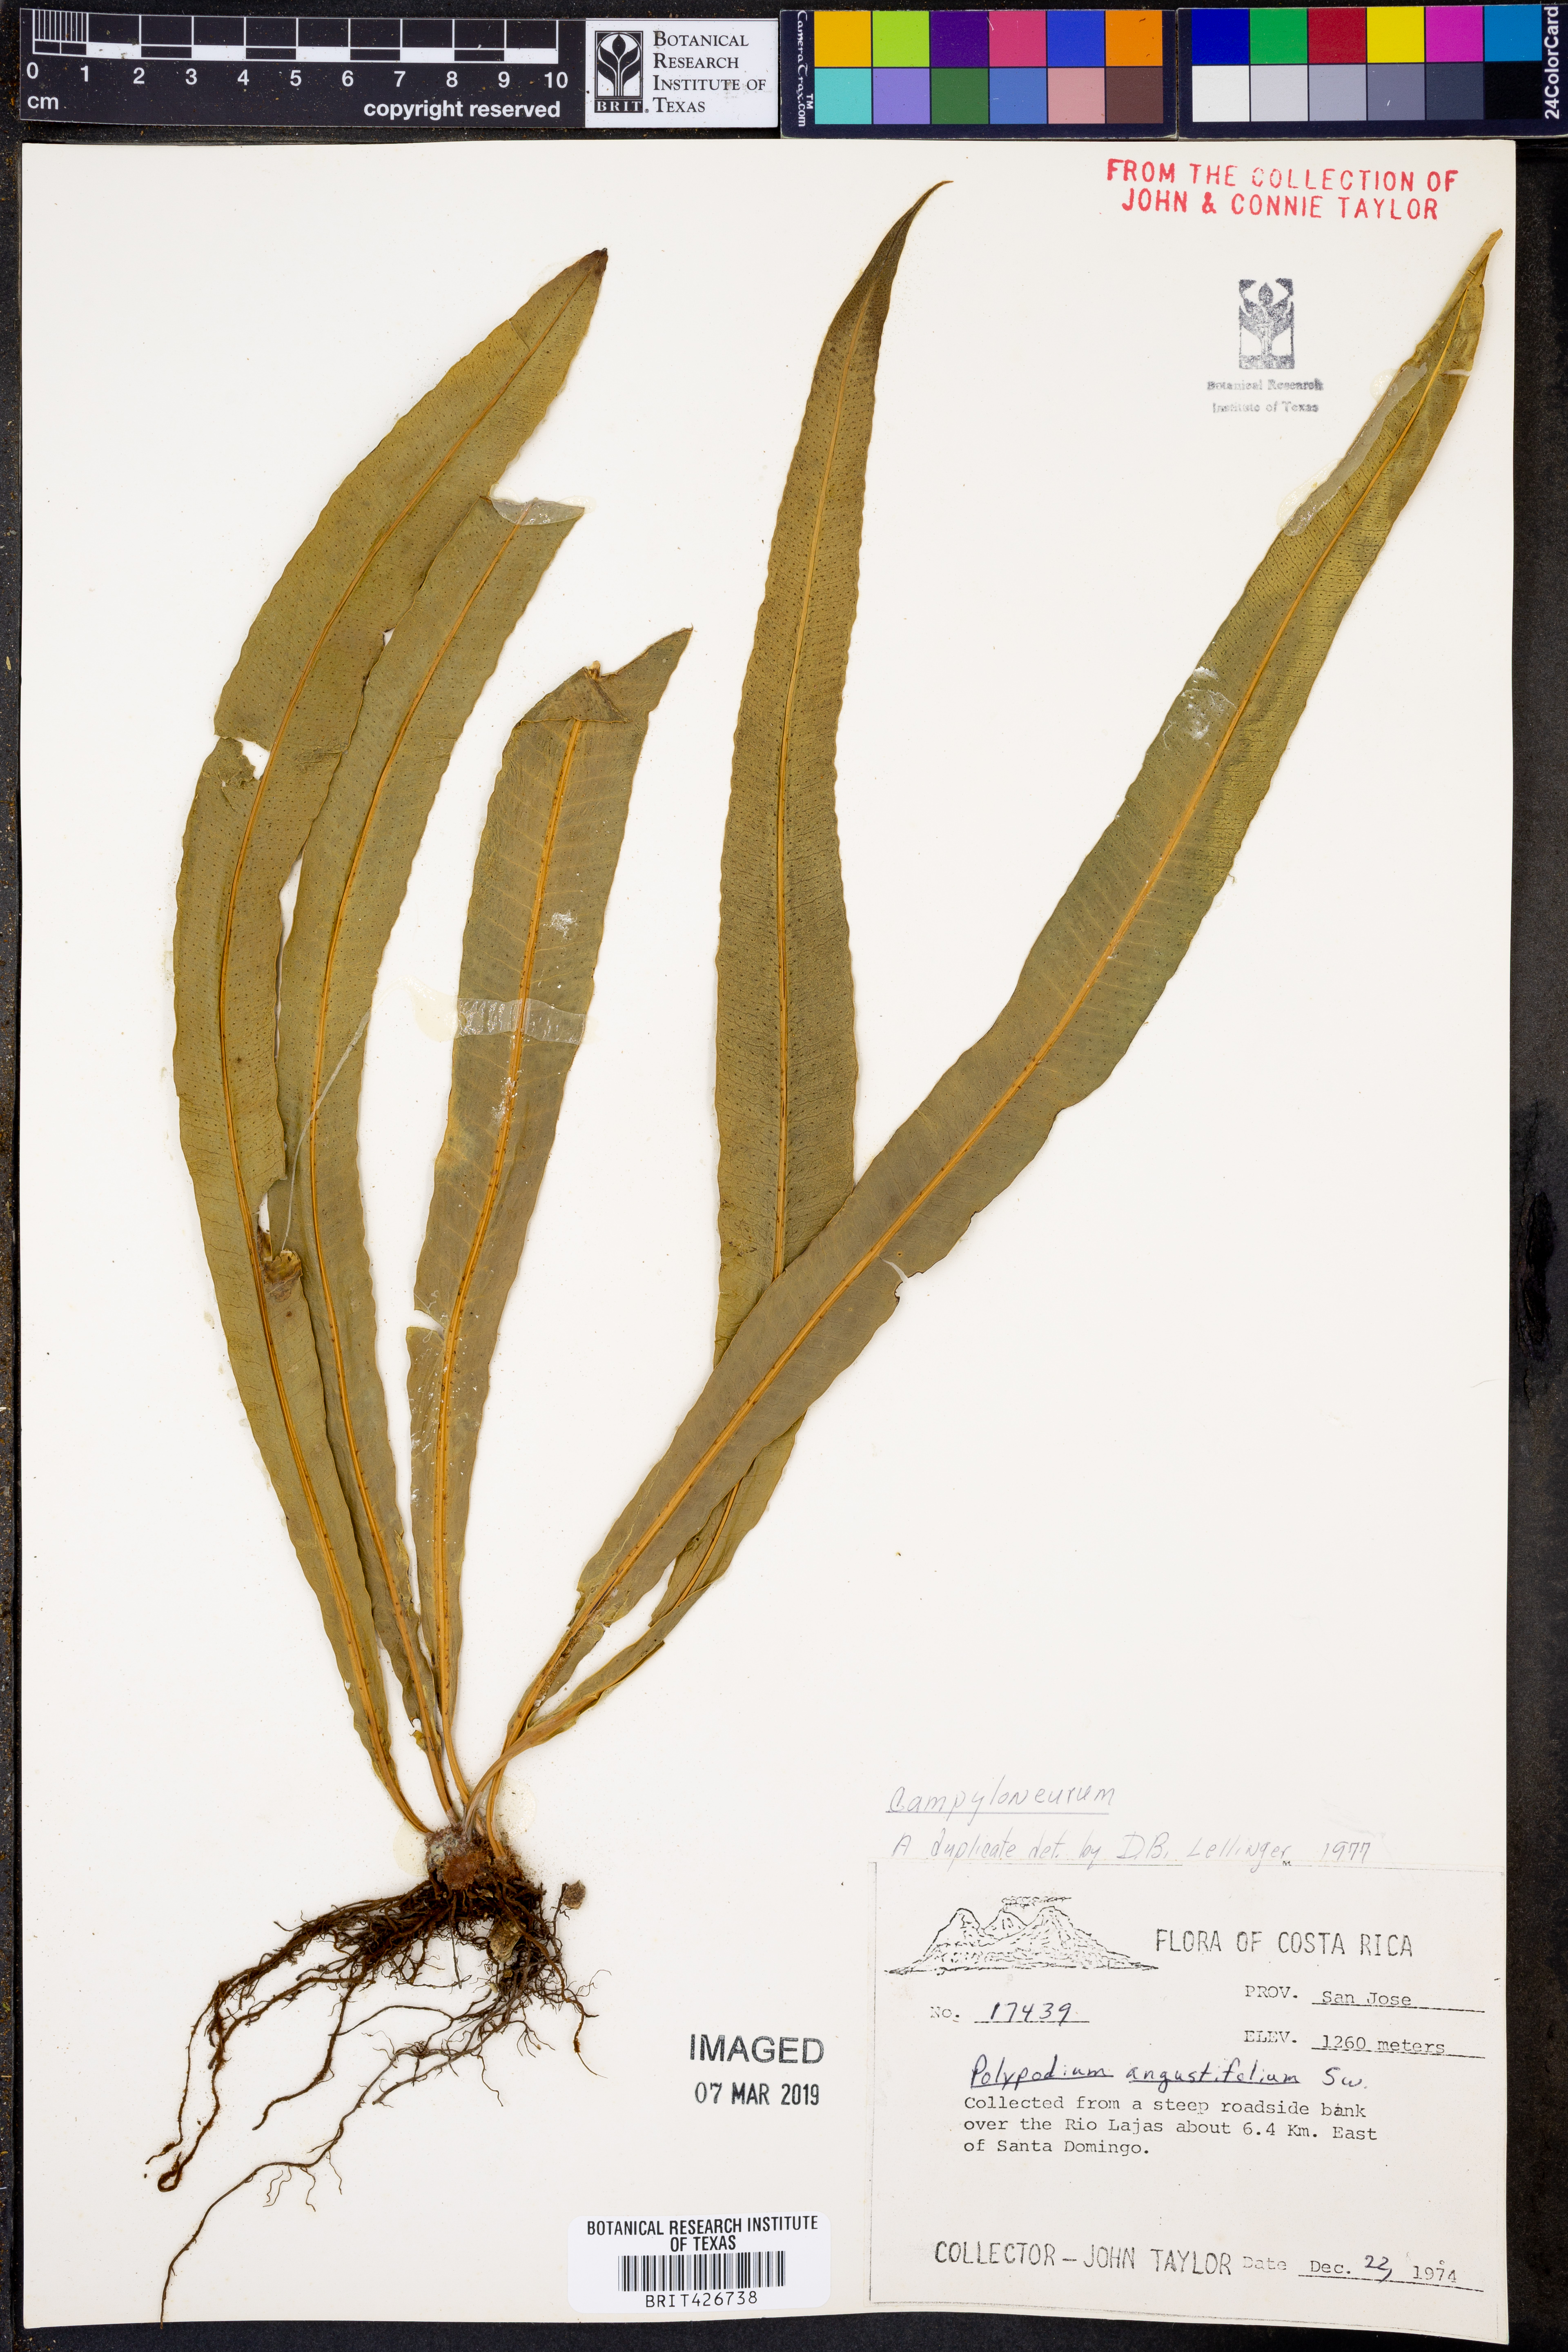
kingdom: Plantae
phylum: Tracheophyta
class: Polypodiopsida
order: Polypodiales
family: Polypodiaceae
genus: Campyloneurum
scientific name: Campyloneurum angustifolium
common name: Narrow-leaf strap fern
